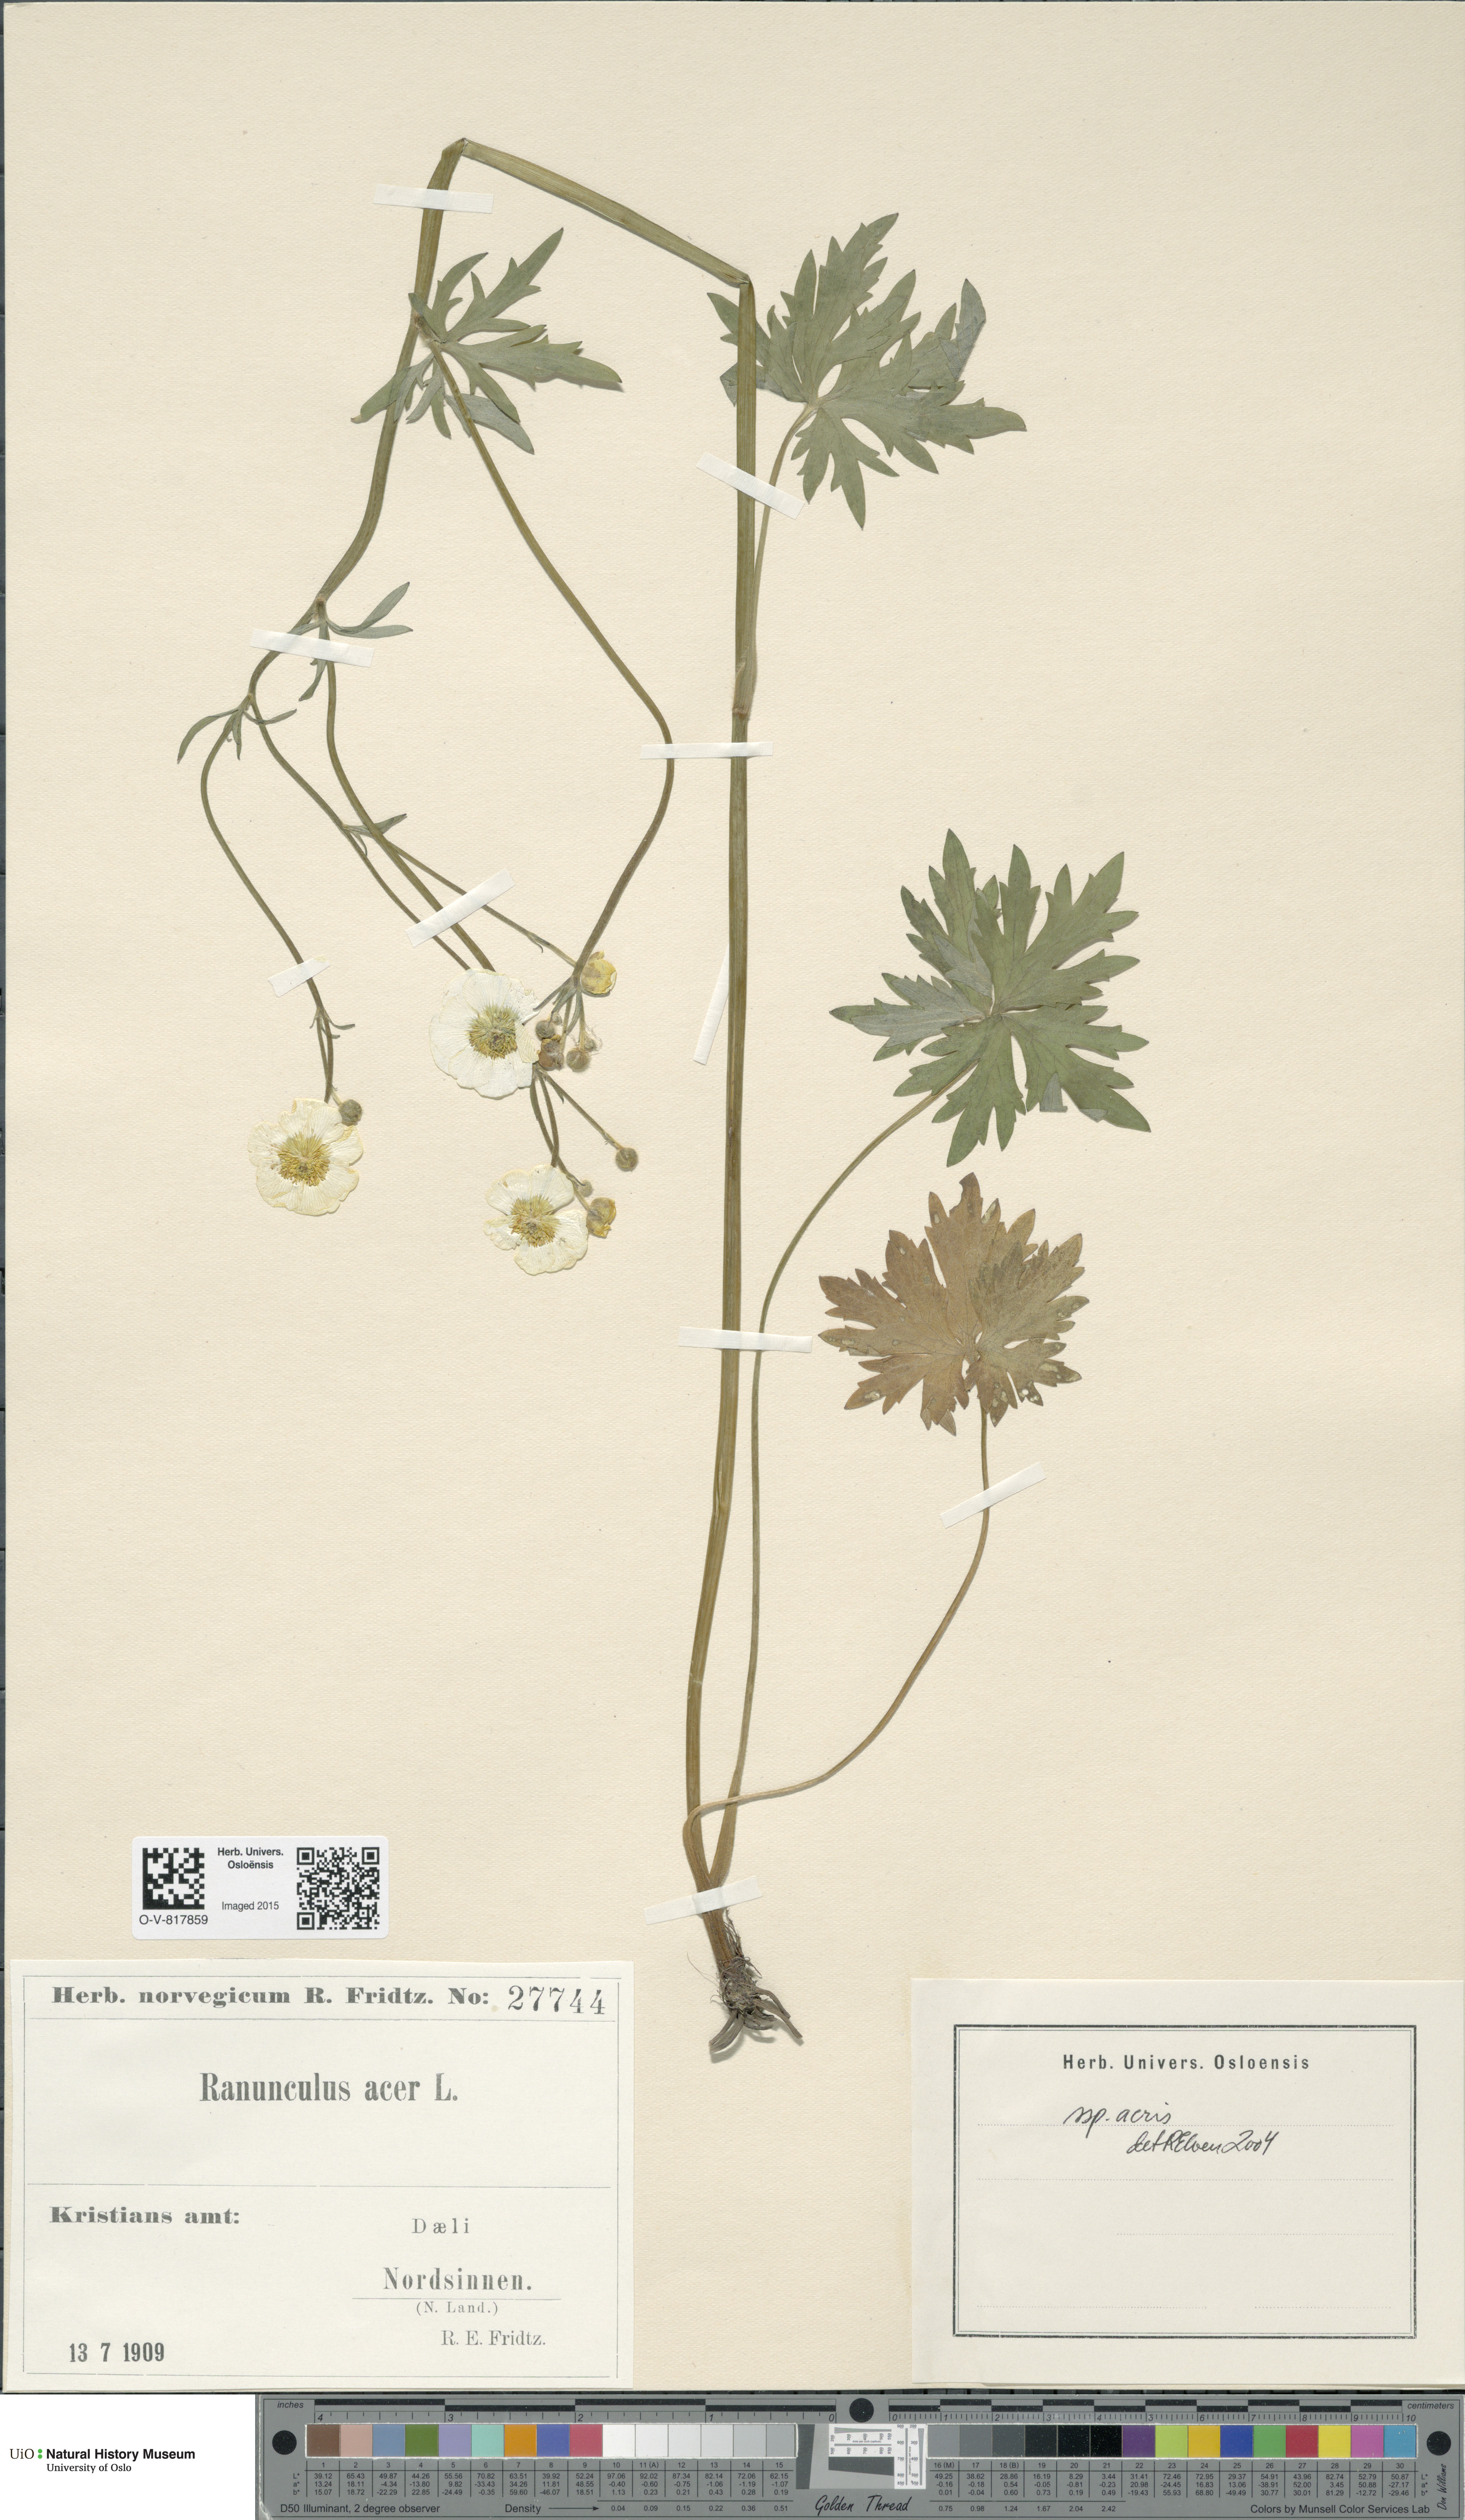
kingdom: Plantae
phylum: Tracheophyta
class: Magnoliopsida
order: Ranunculales
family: Ranunculaceae
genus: Ranunculus
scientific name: Ranunculus acris
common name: Meadow buttercup
